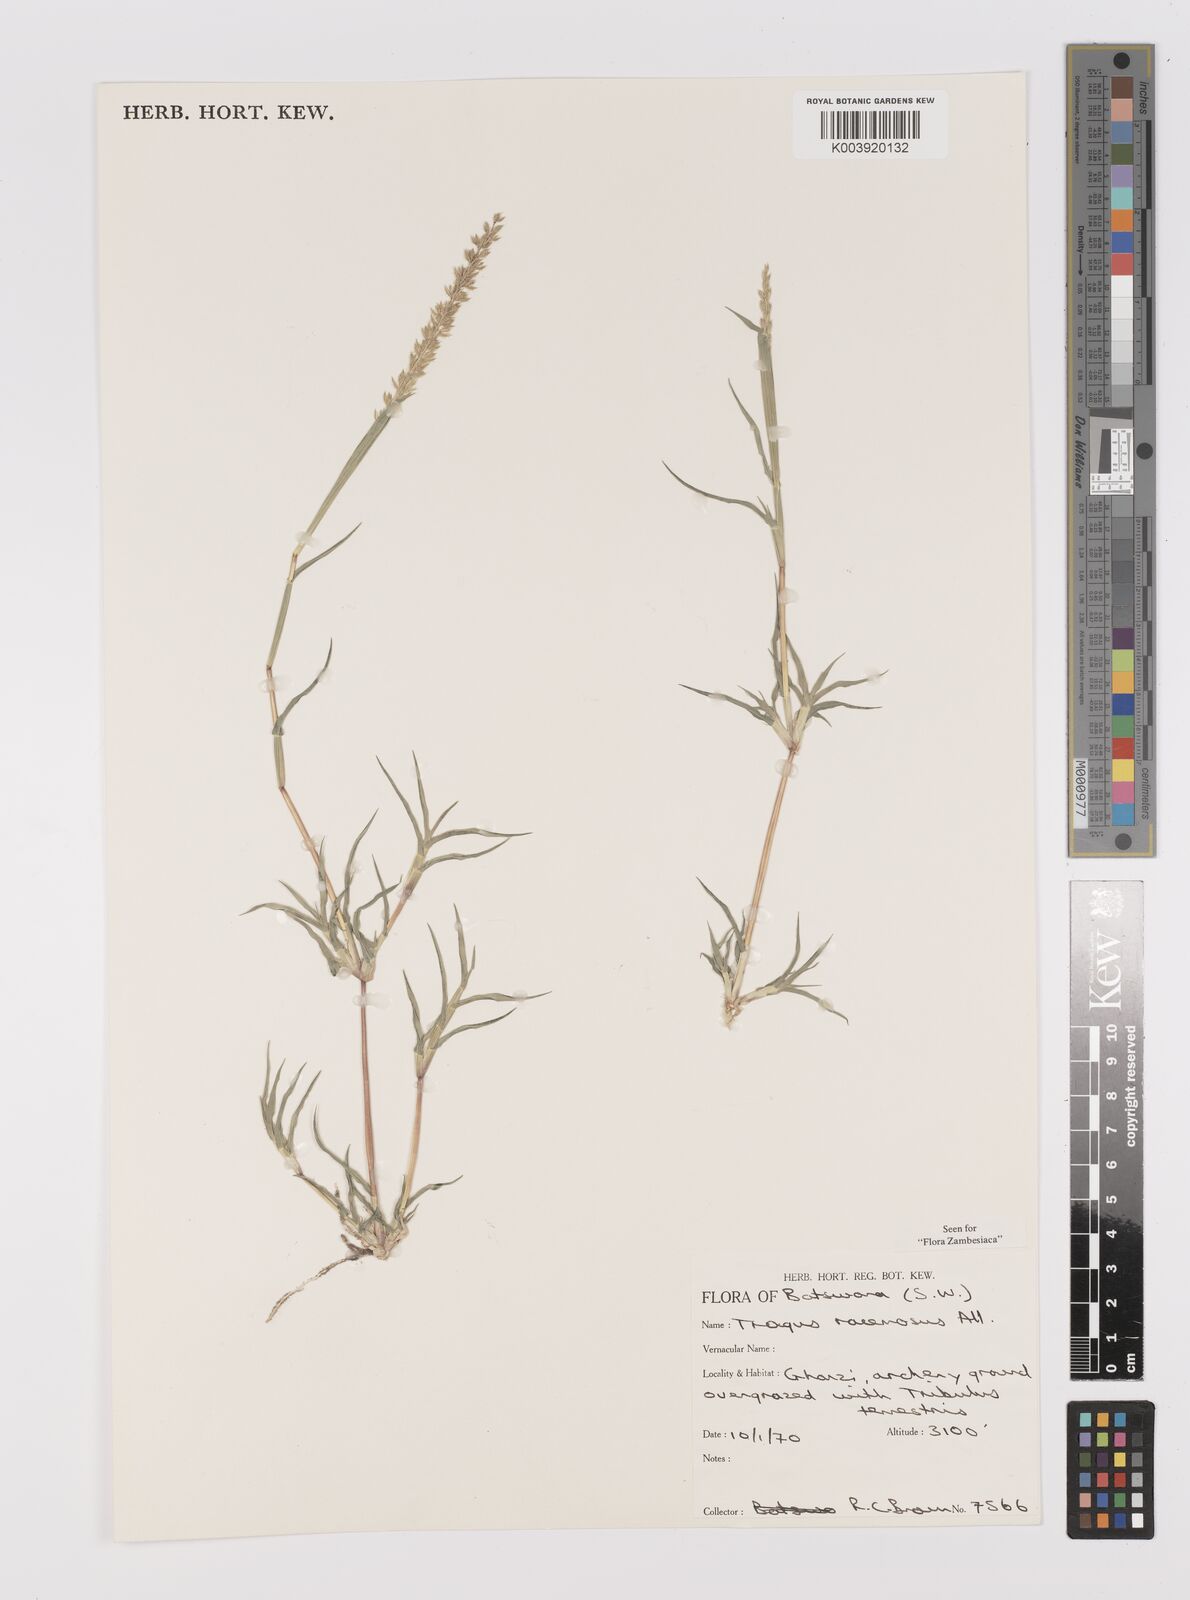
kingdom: Plantae
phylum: Tracheophyta
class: Liliopsida
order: Poales
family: Poaceae
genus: Tragus
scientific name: Tragus racemosus
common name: European bur-grass
